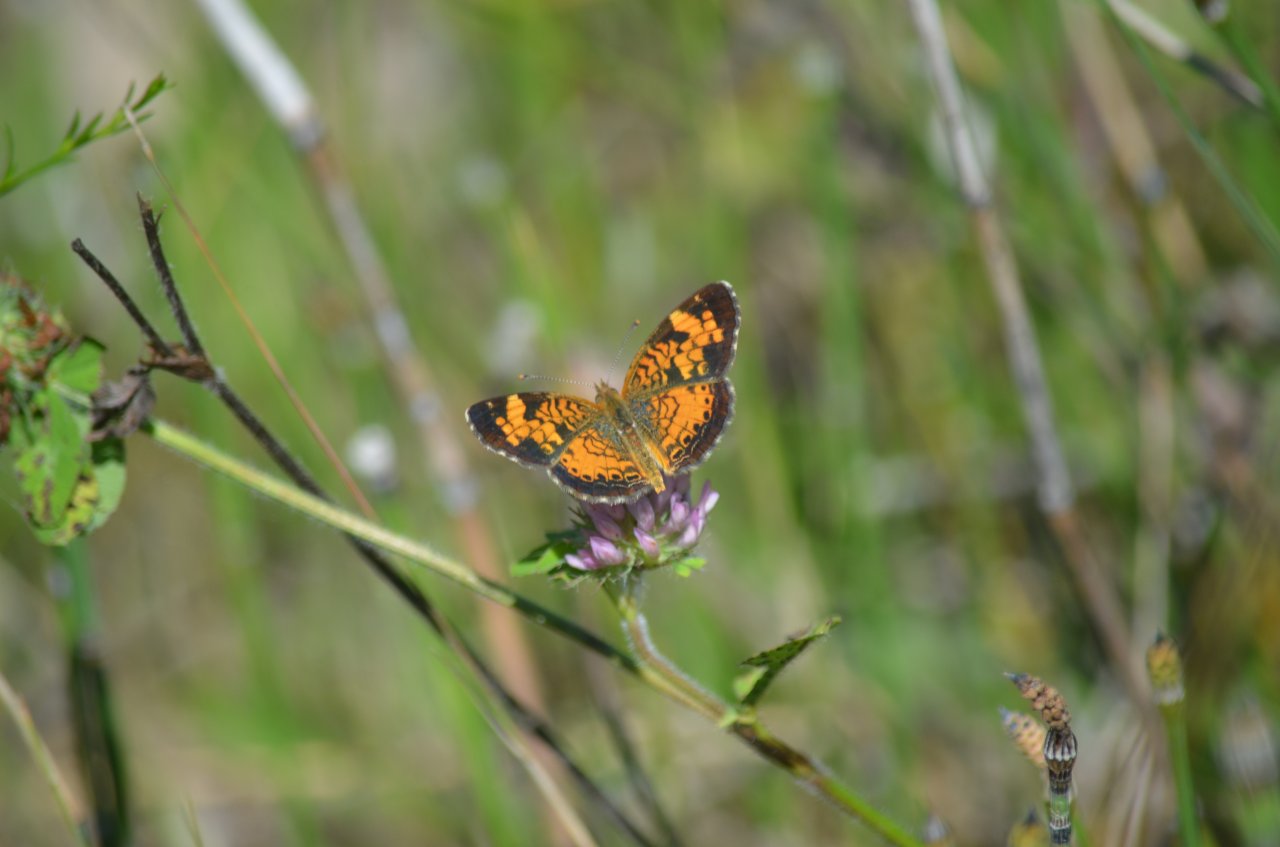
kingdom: Animalia
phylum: Arthropoda
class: Insecta
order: Lepidoptera
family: Nymphalidae
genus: Phyciodes
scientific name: Phyciodes tharos
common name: Northern Crescent
